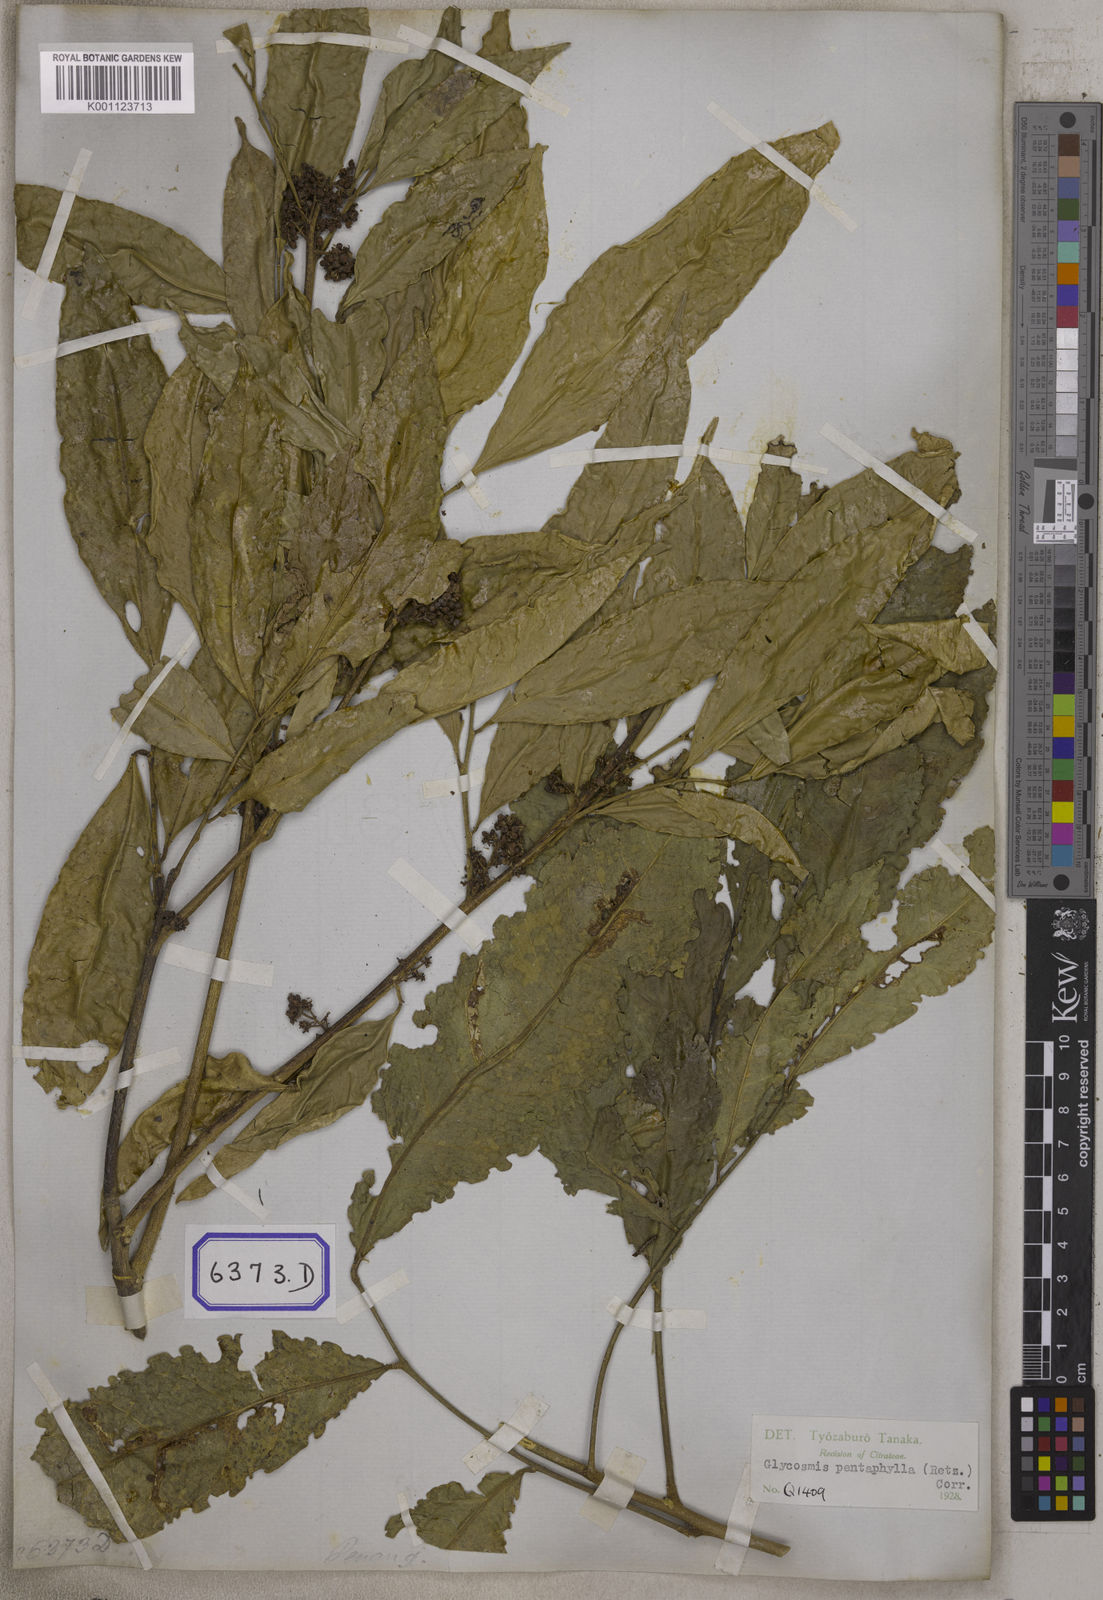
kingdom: Plantae
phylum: Tracheophyta
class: Magnoliopsida
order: Sapindales
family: Rutaceae
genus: Glycosmis
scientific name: Glycosmis pentaphylla
